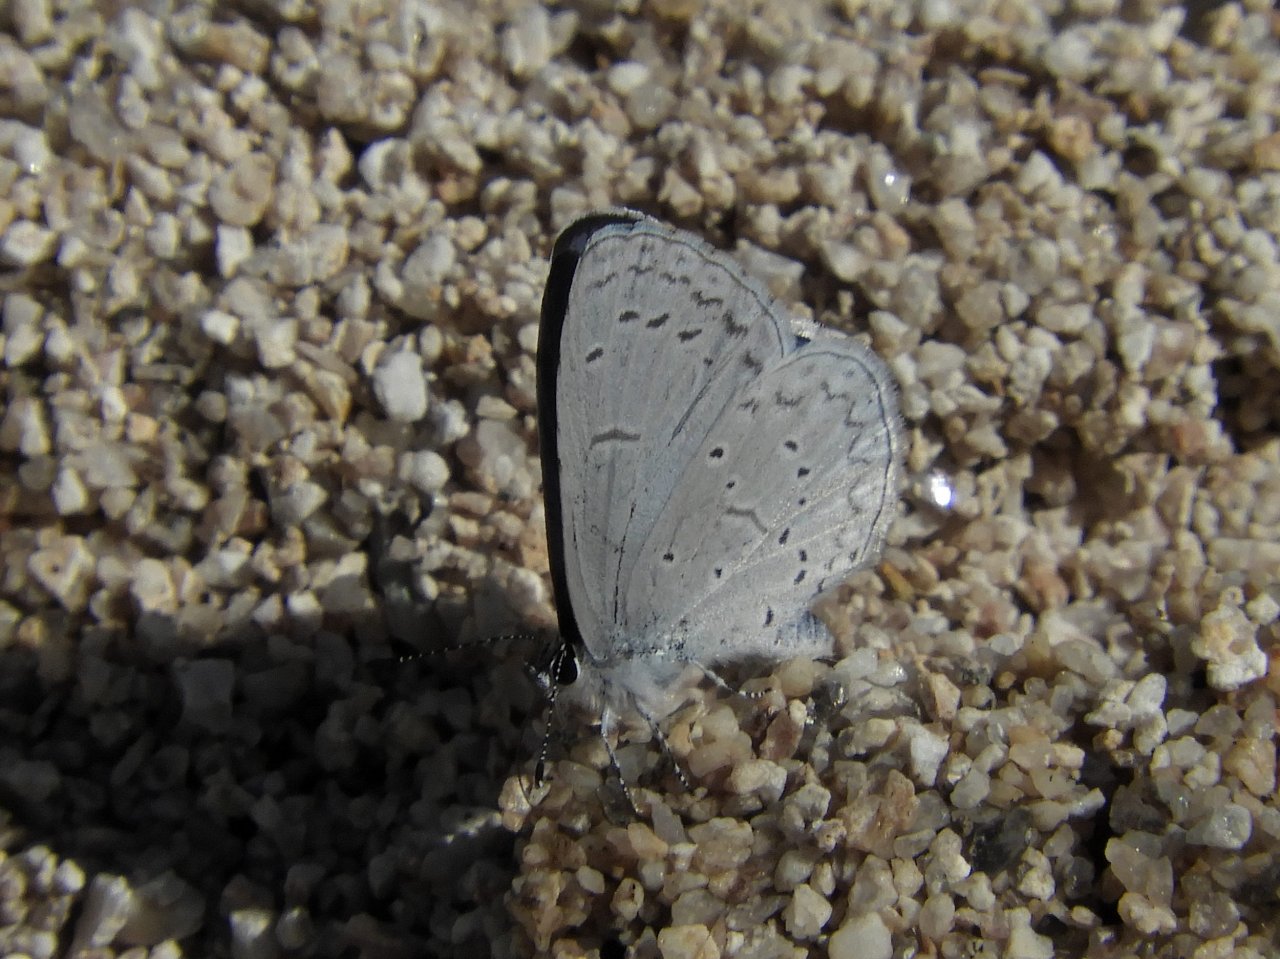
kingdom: Animalia
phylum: Arthropoda
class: Insecta
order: Lepidoptera
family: Lycaenidae
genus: Celastrina
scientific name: Celastrina ladon
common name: Spring Azure
